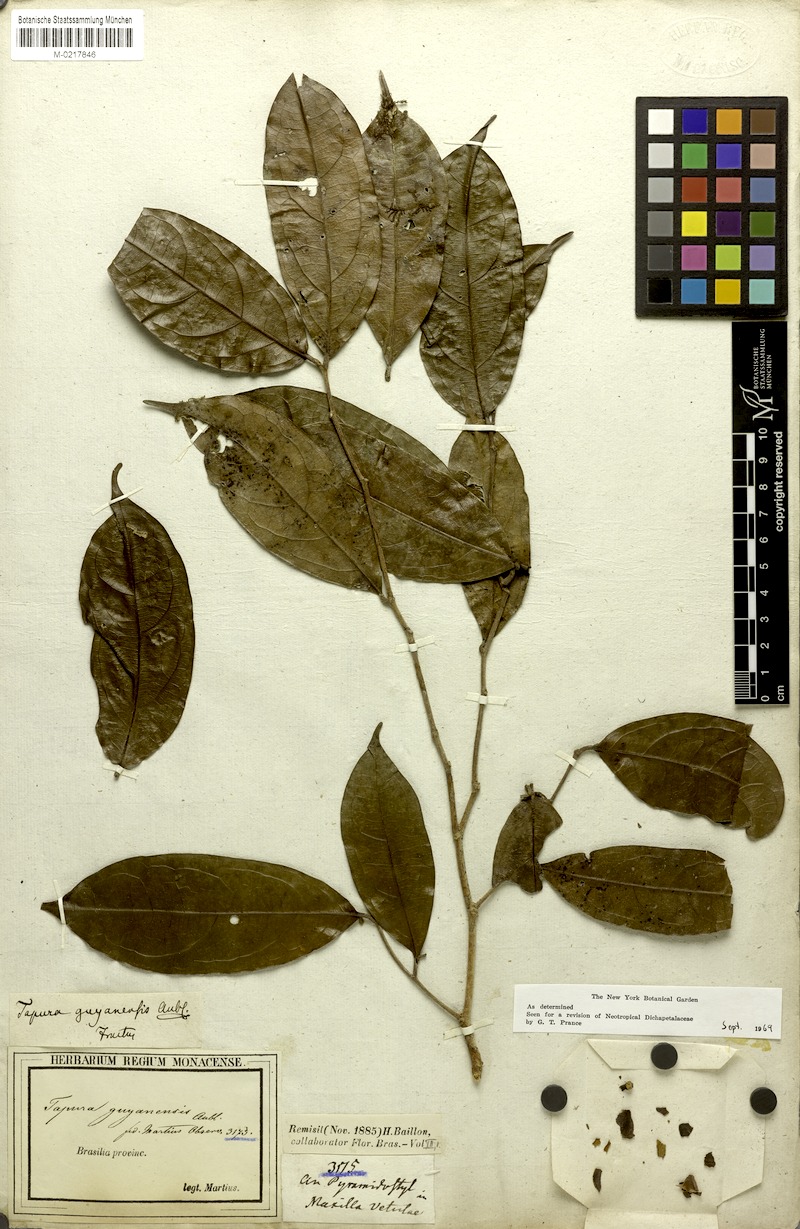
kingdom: Plantae
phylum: Tracheophyta
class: Magnoliopsida
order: Malpighiales
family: Dichapetalaceae
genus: Tapura
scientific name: Tapura guianensis
